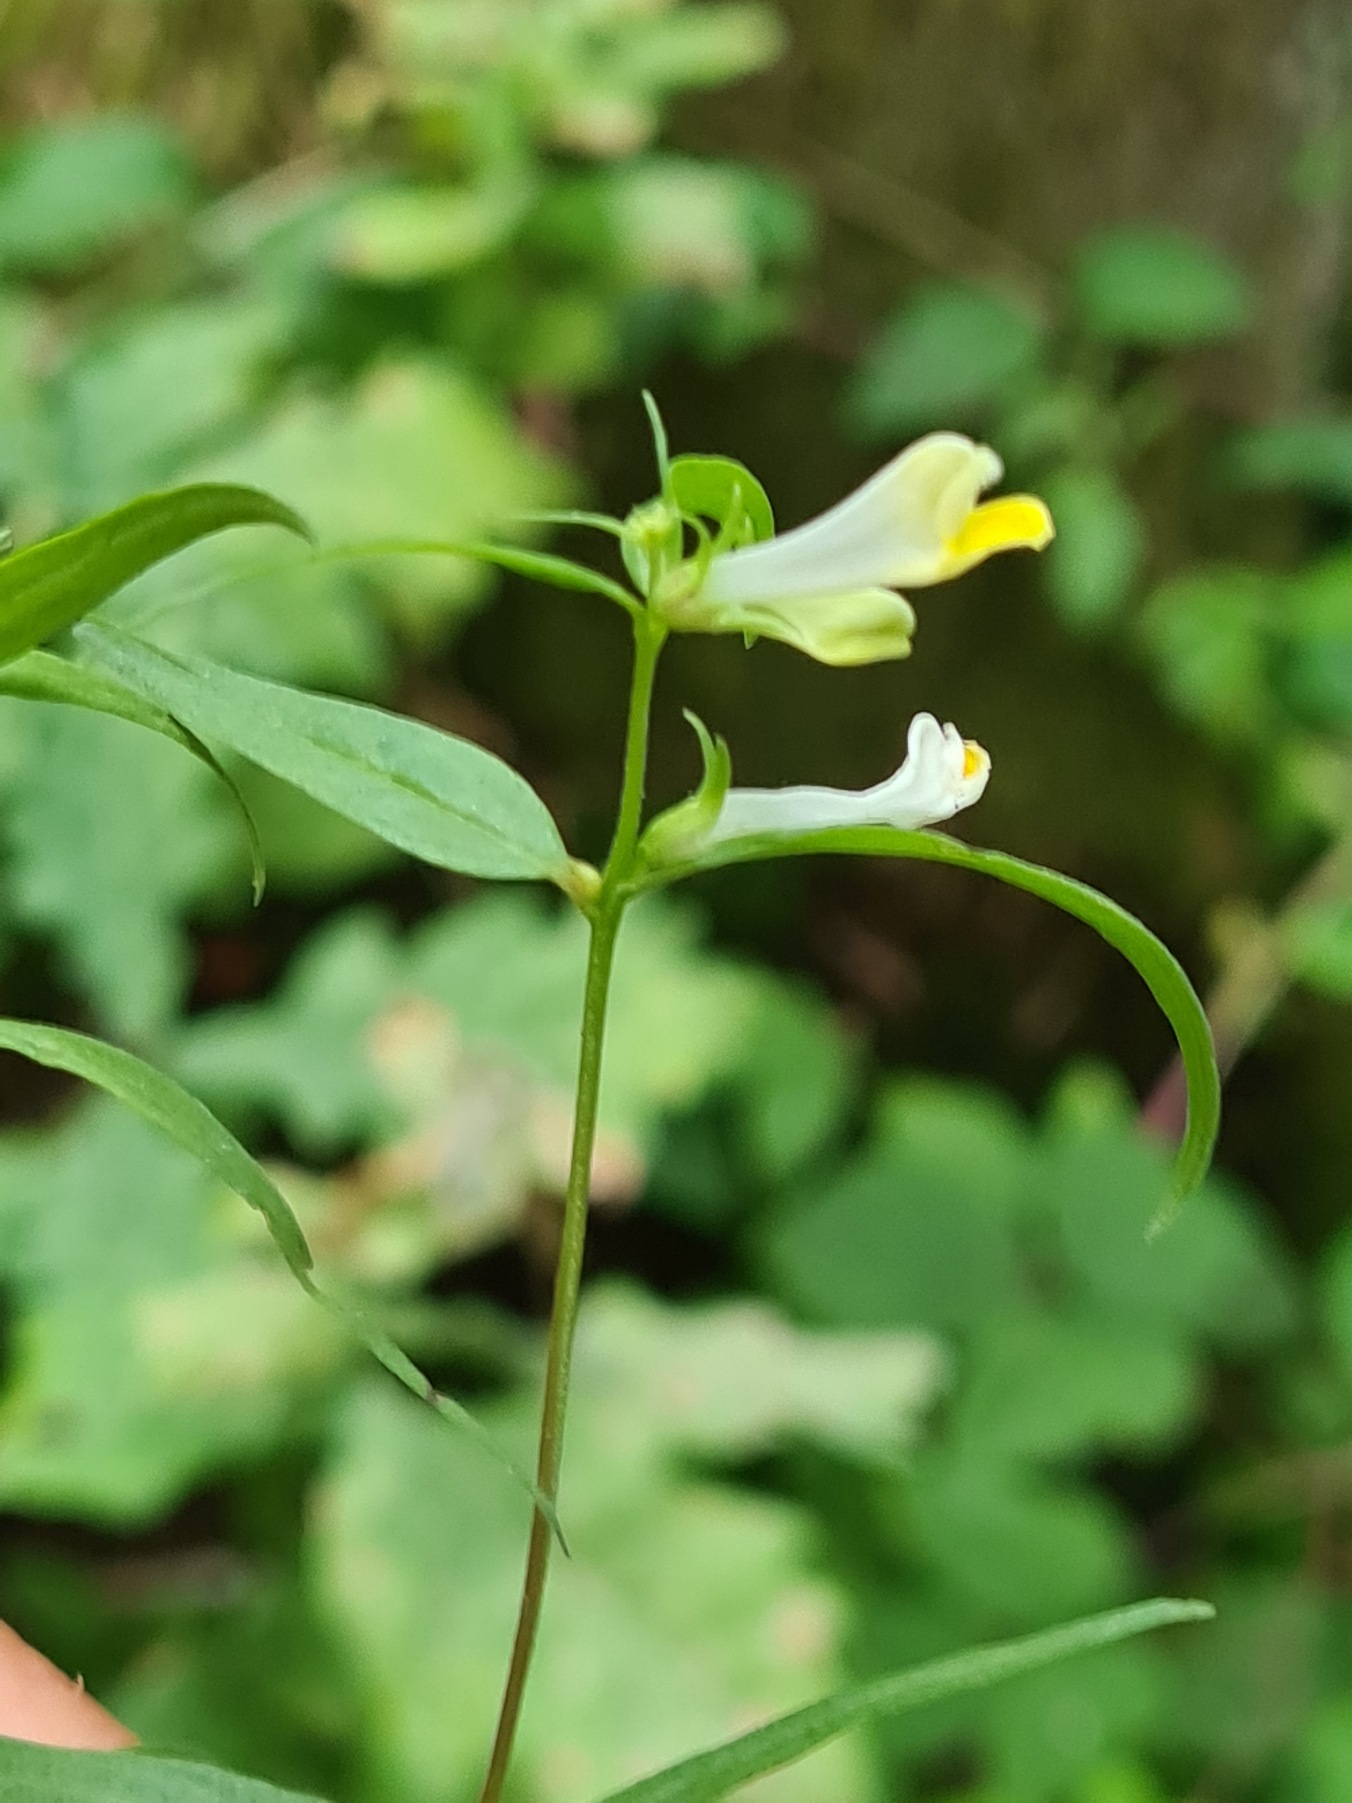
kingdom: Plantae
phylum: Tracheophyta
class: Magnoliopsida
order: Lamiales
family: Orobanchaceae
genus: Melampyrum
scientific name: Melampyrum pratense
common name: Almindelig kohvede
